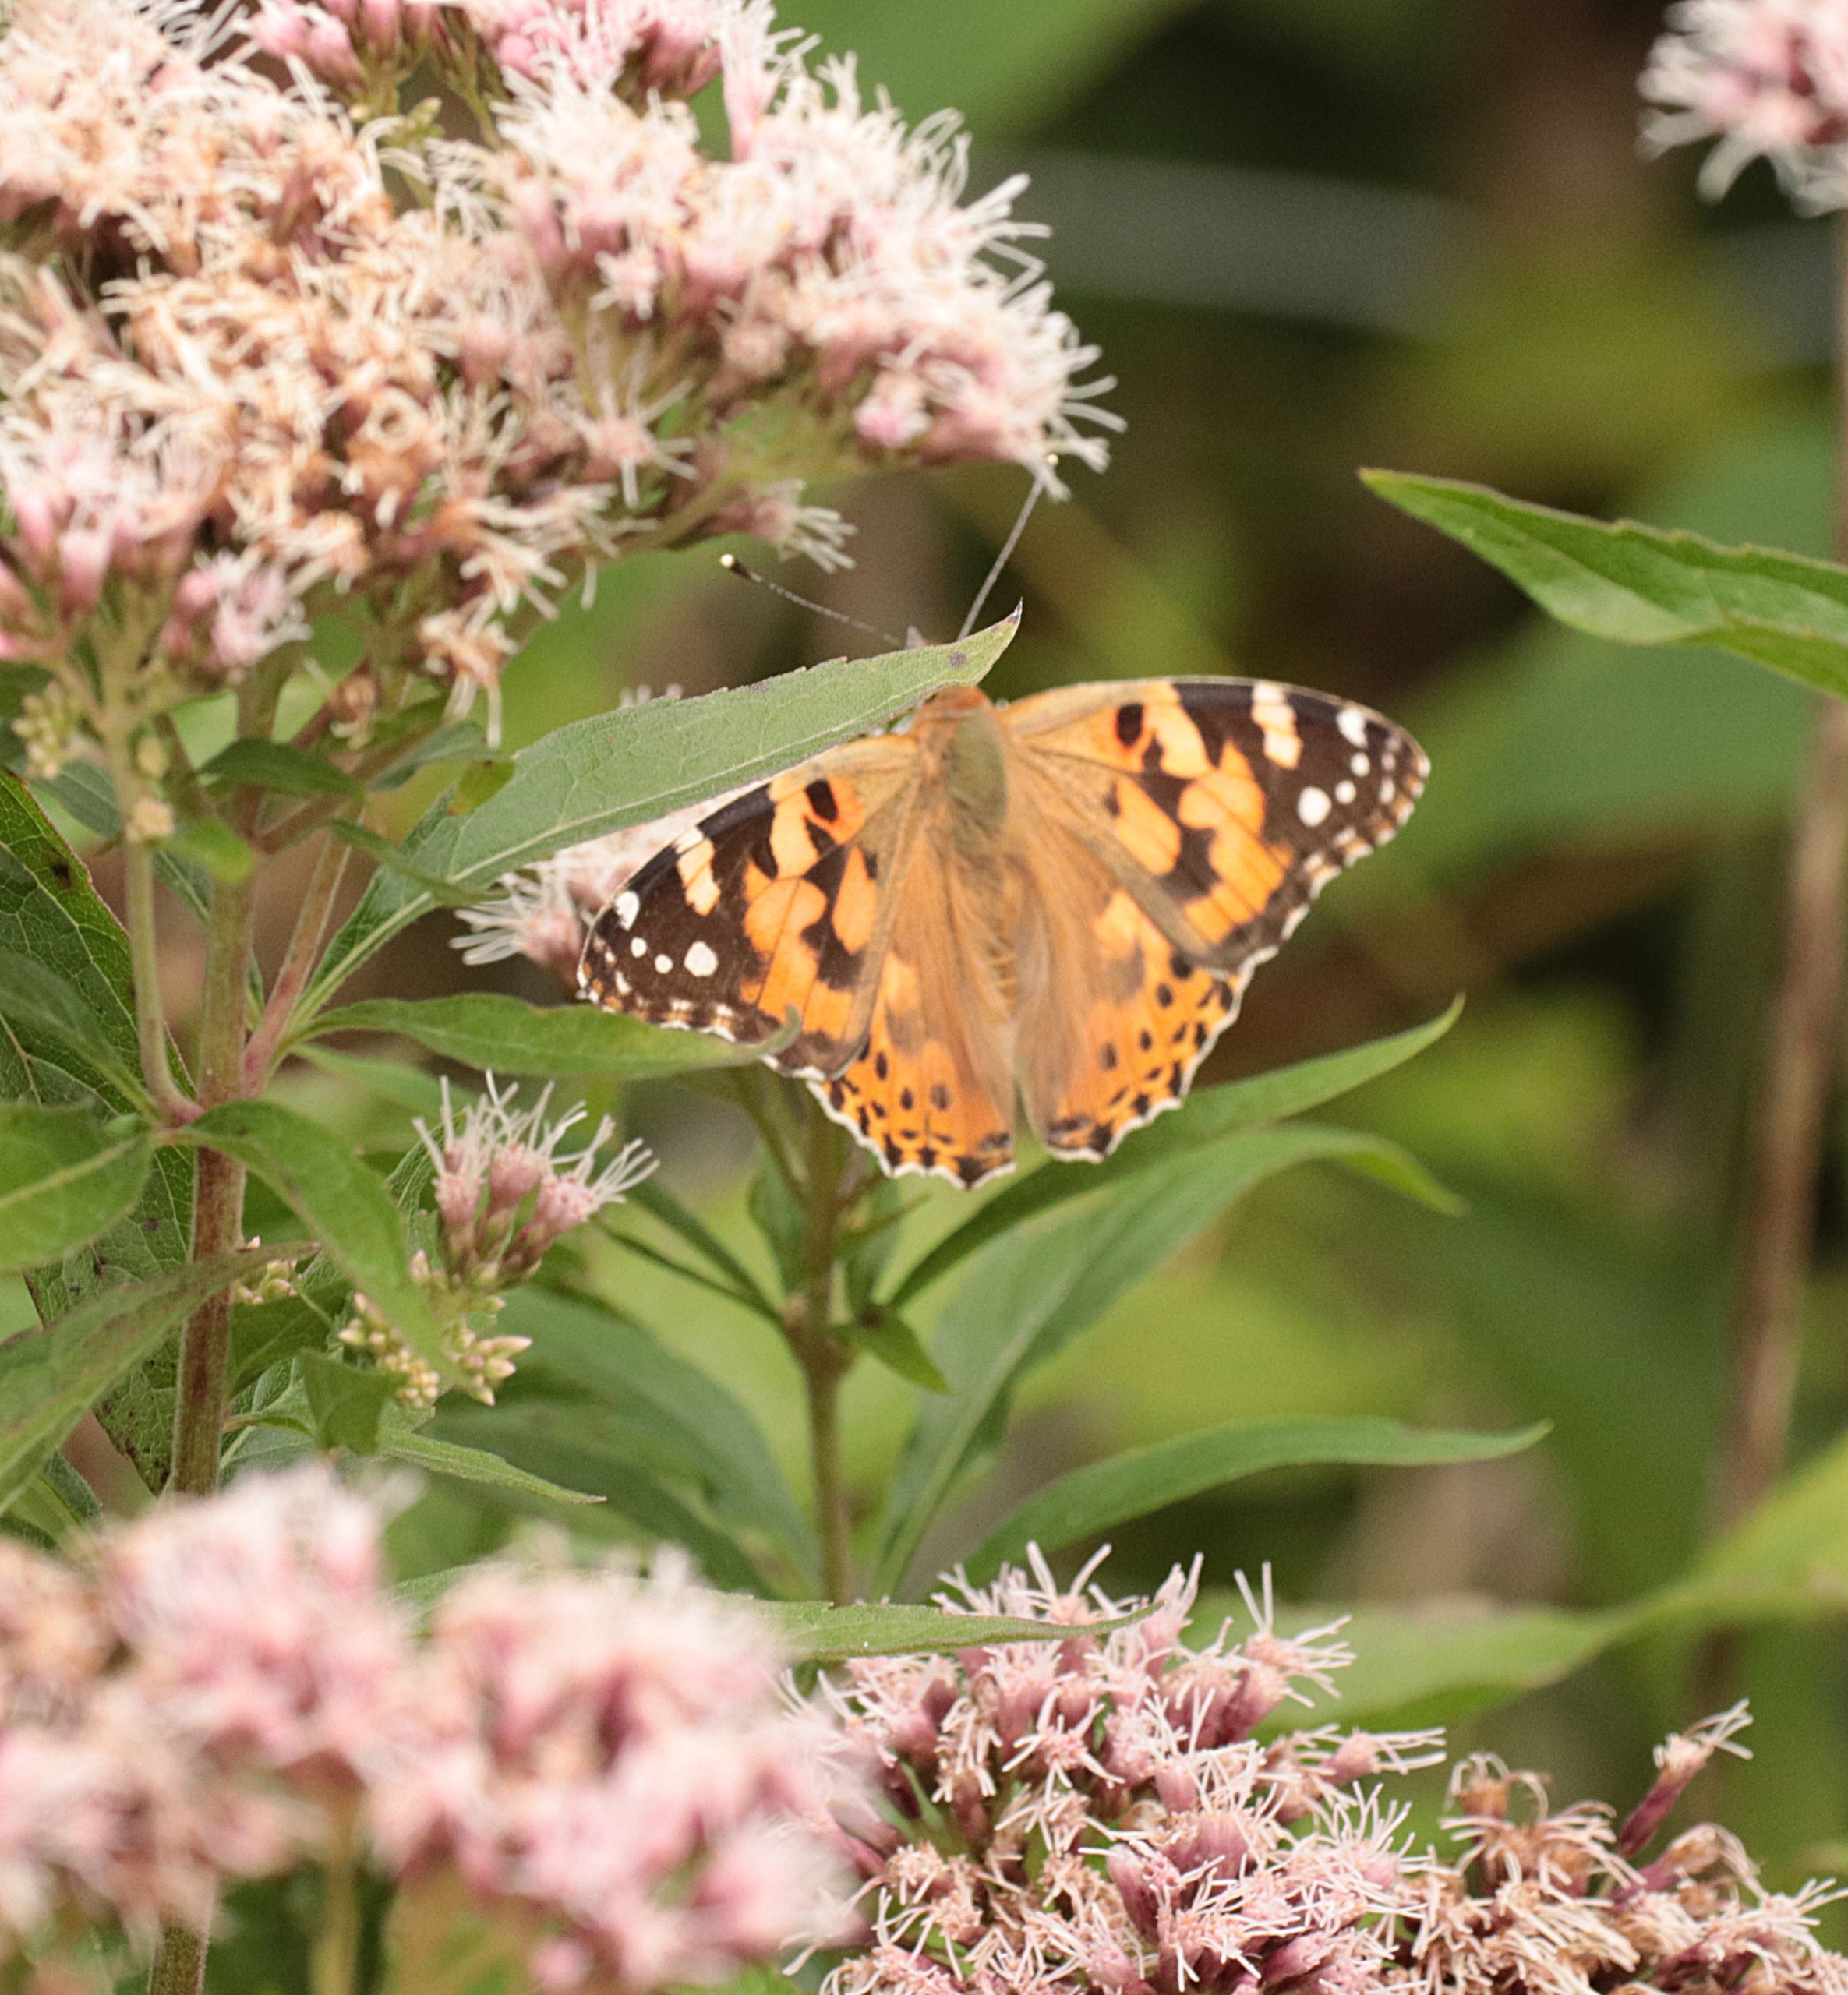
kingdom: Animalia
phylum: Arthropoda
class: Insecta
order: Lepidoptera
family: Nymphalidae
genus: Vanessa
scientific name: Vanessa cardui
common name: Tidselsommerfugl
